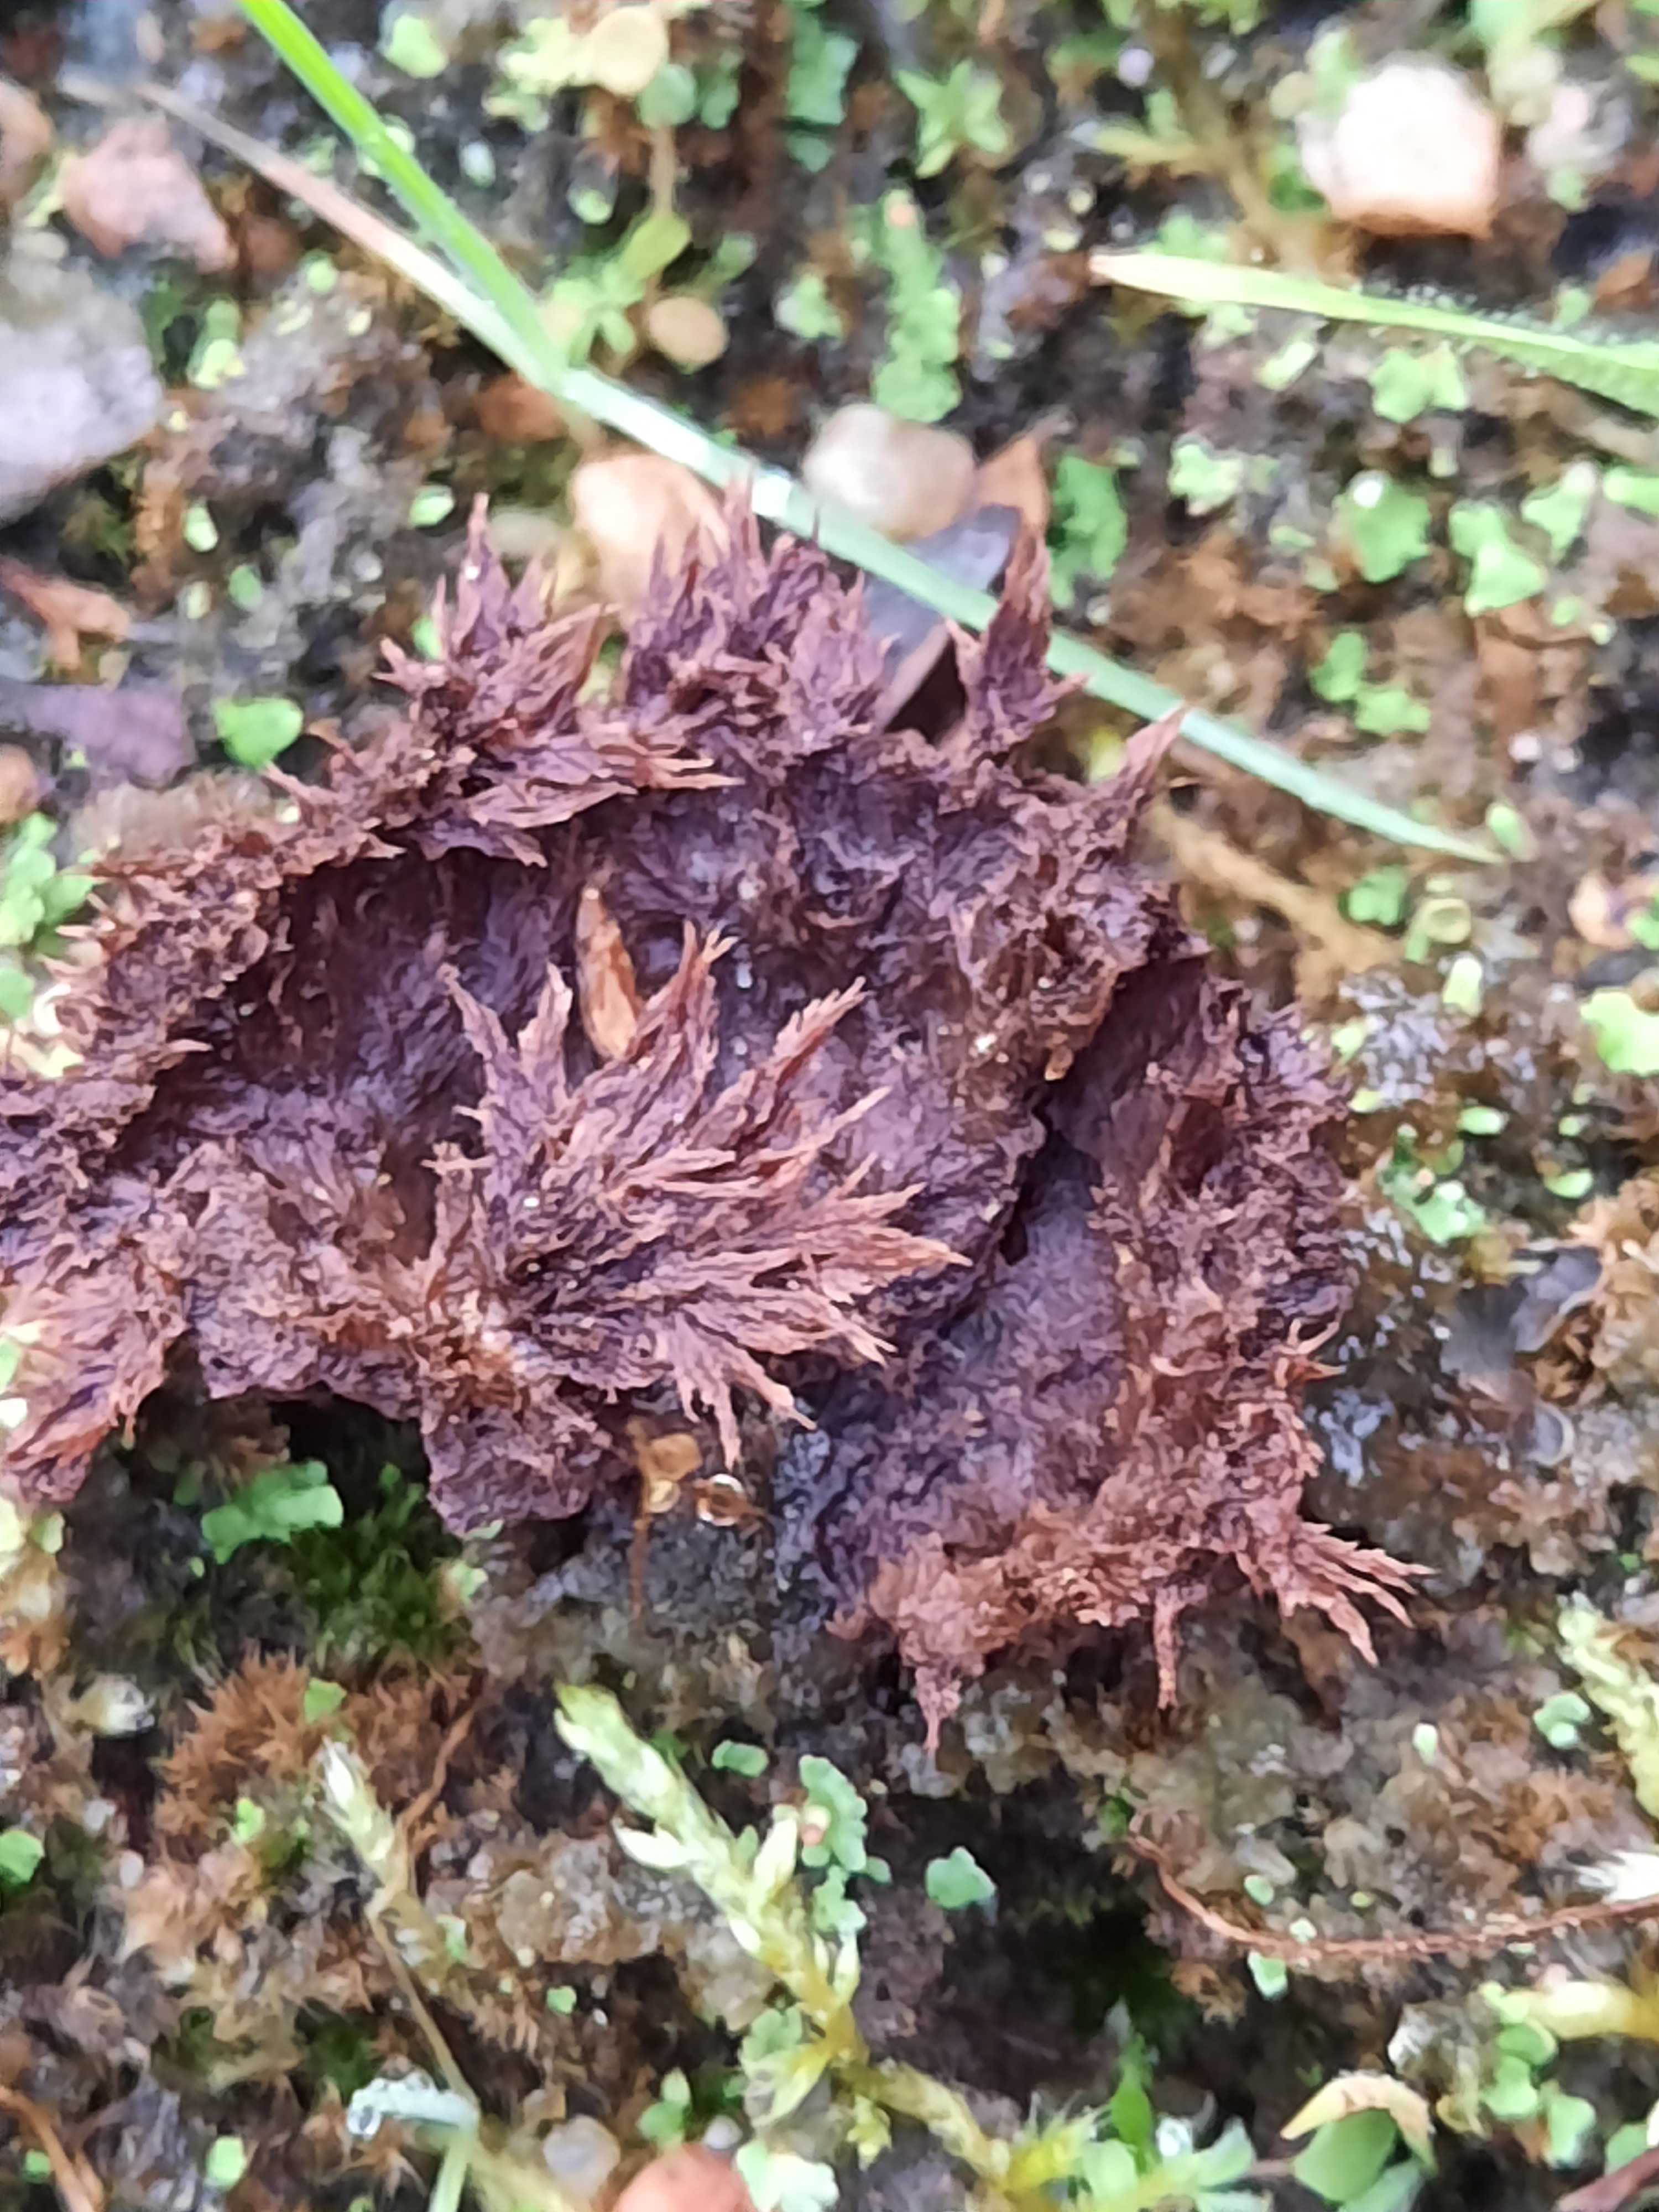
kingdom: Fungi
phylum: Basidiomycota
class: Agaricomycetes
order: Thelephorales
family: Thelephoraceae
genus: Thelephora
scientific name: Thelephora terrestris
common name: fliget frynsesvamp
